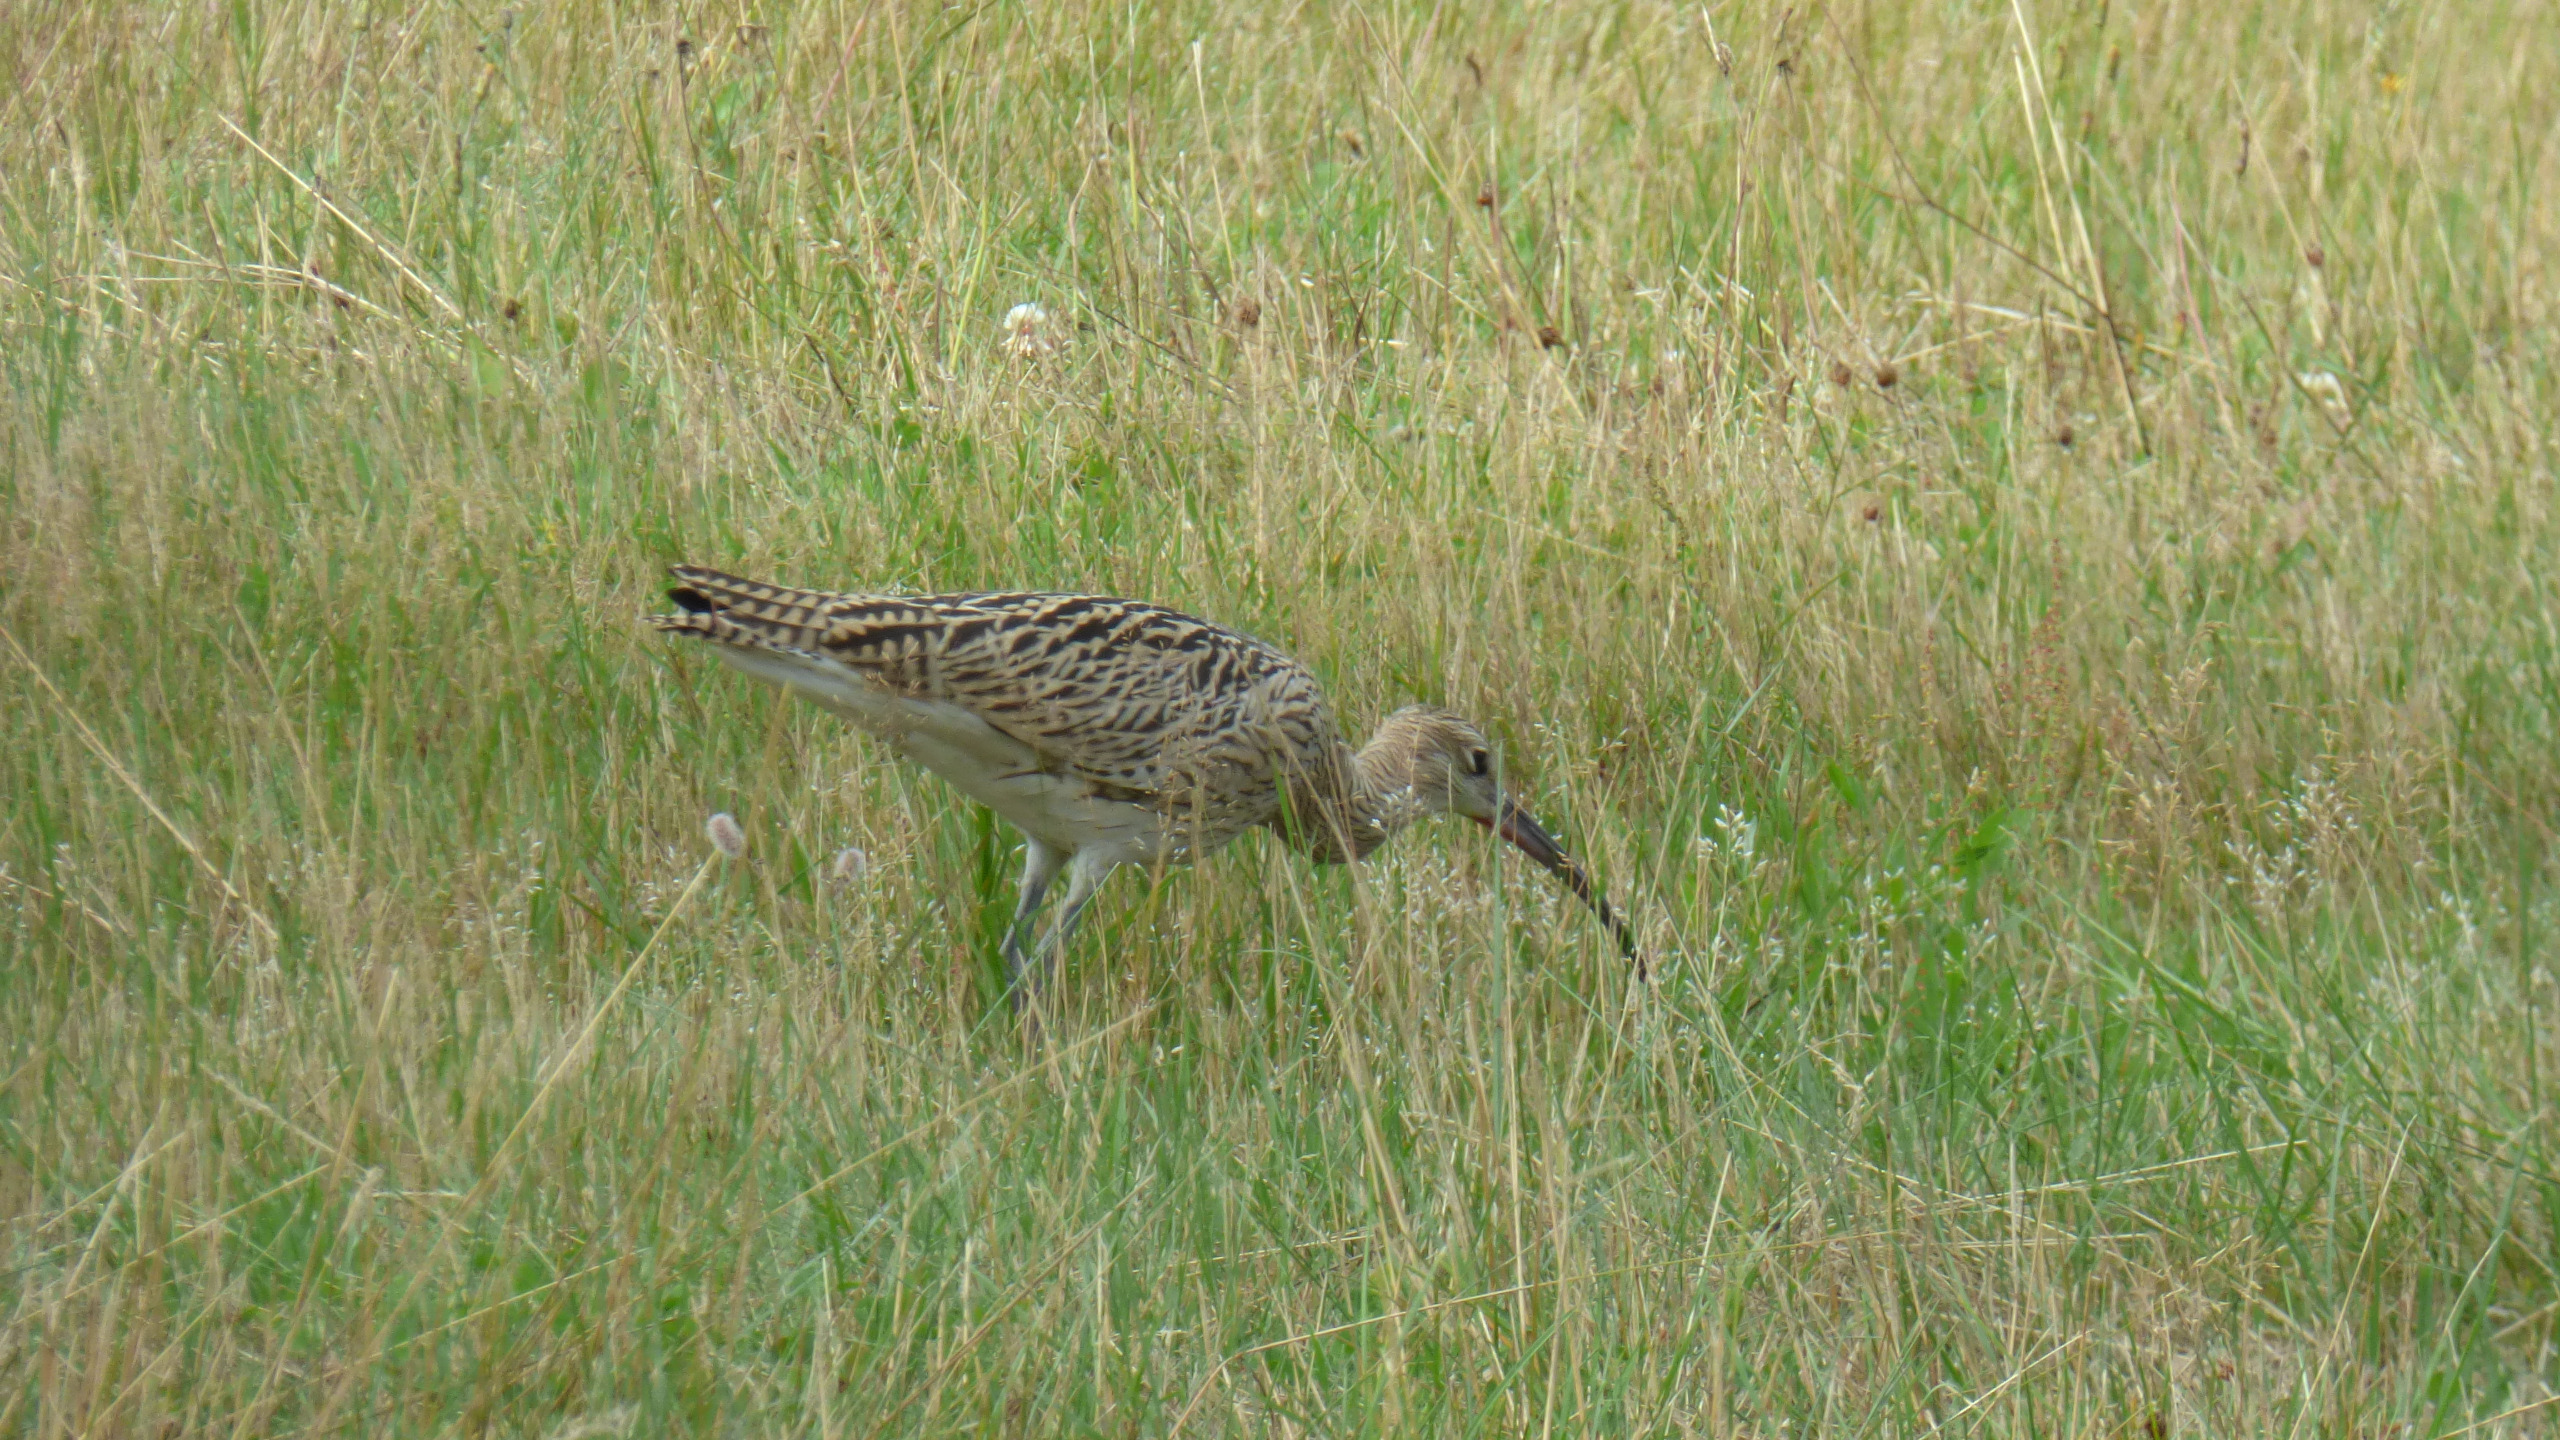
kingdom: Animalia
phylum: Chordata
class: Aves
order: Charadriiformes
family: Scolopacidae
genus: Numenius
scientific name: Numenius arquata
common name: Storspove
